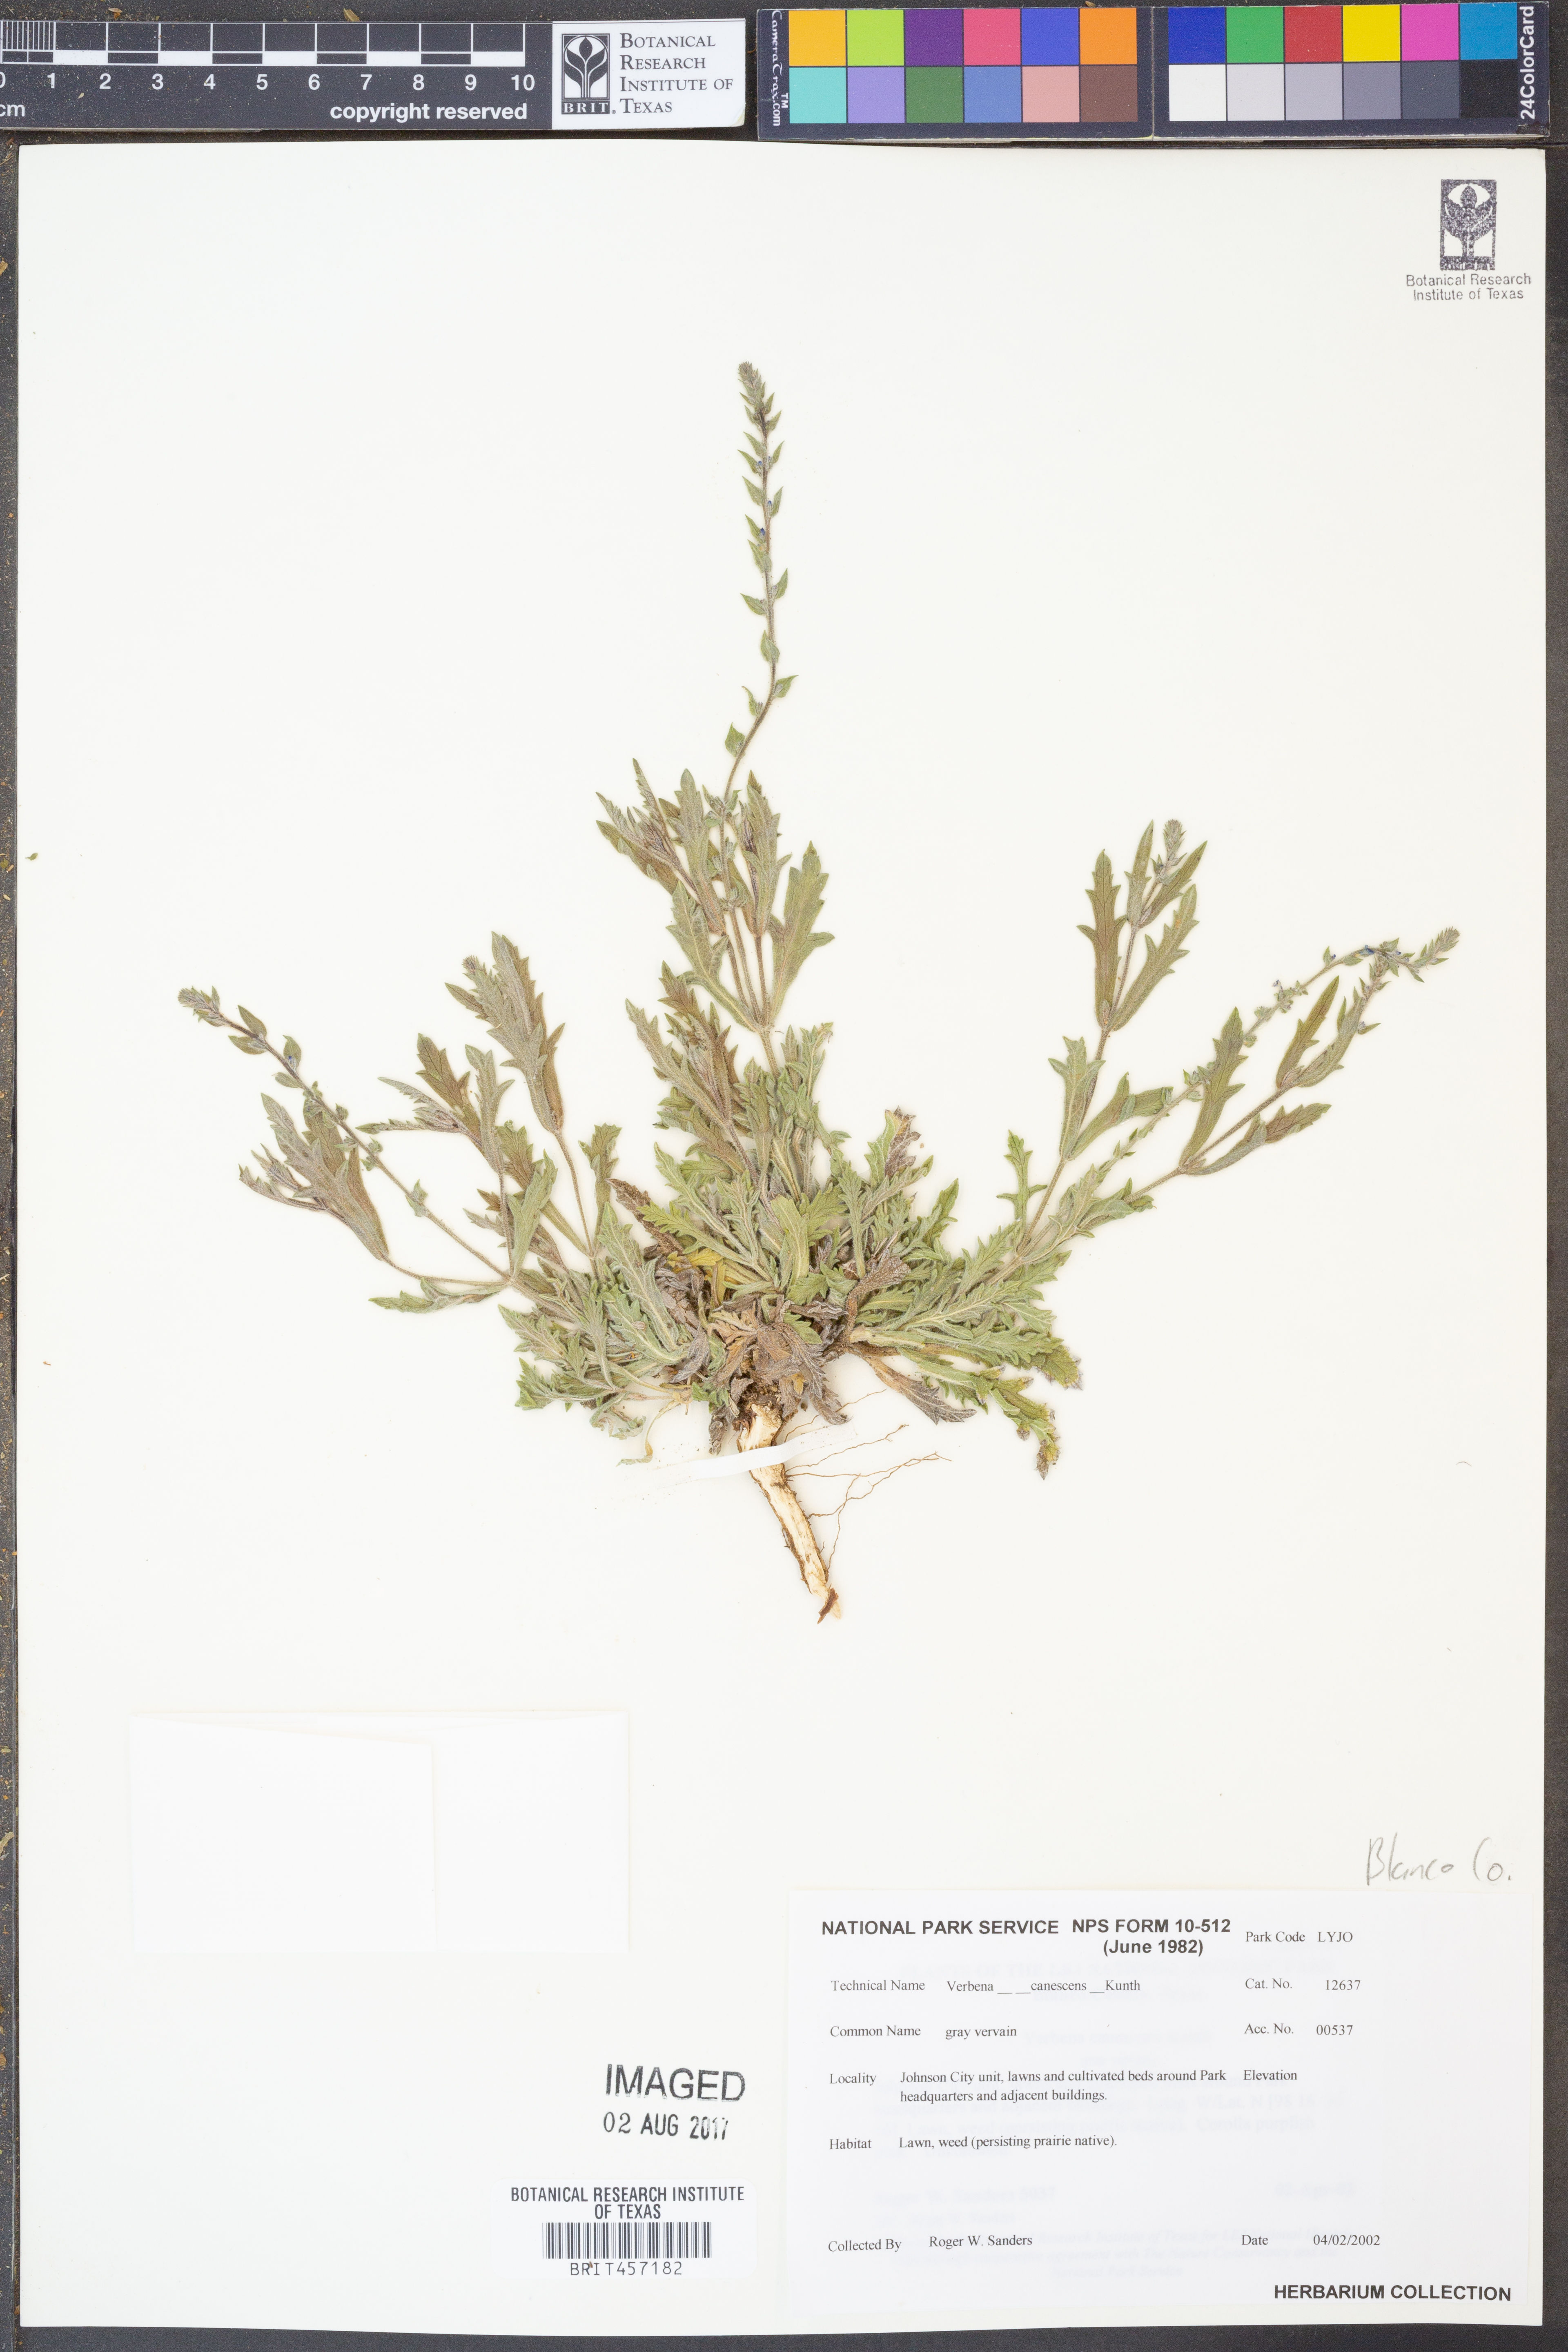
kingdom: Plantae
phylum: Tracheophyta
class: Magnoliopsida
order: Lamiales
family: Verbenaceae
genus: Verbena
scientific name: Verbena canescens
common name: Gray vervain
